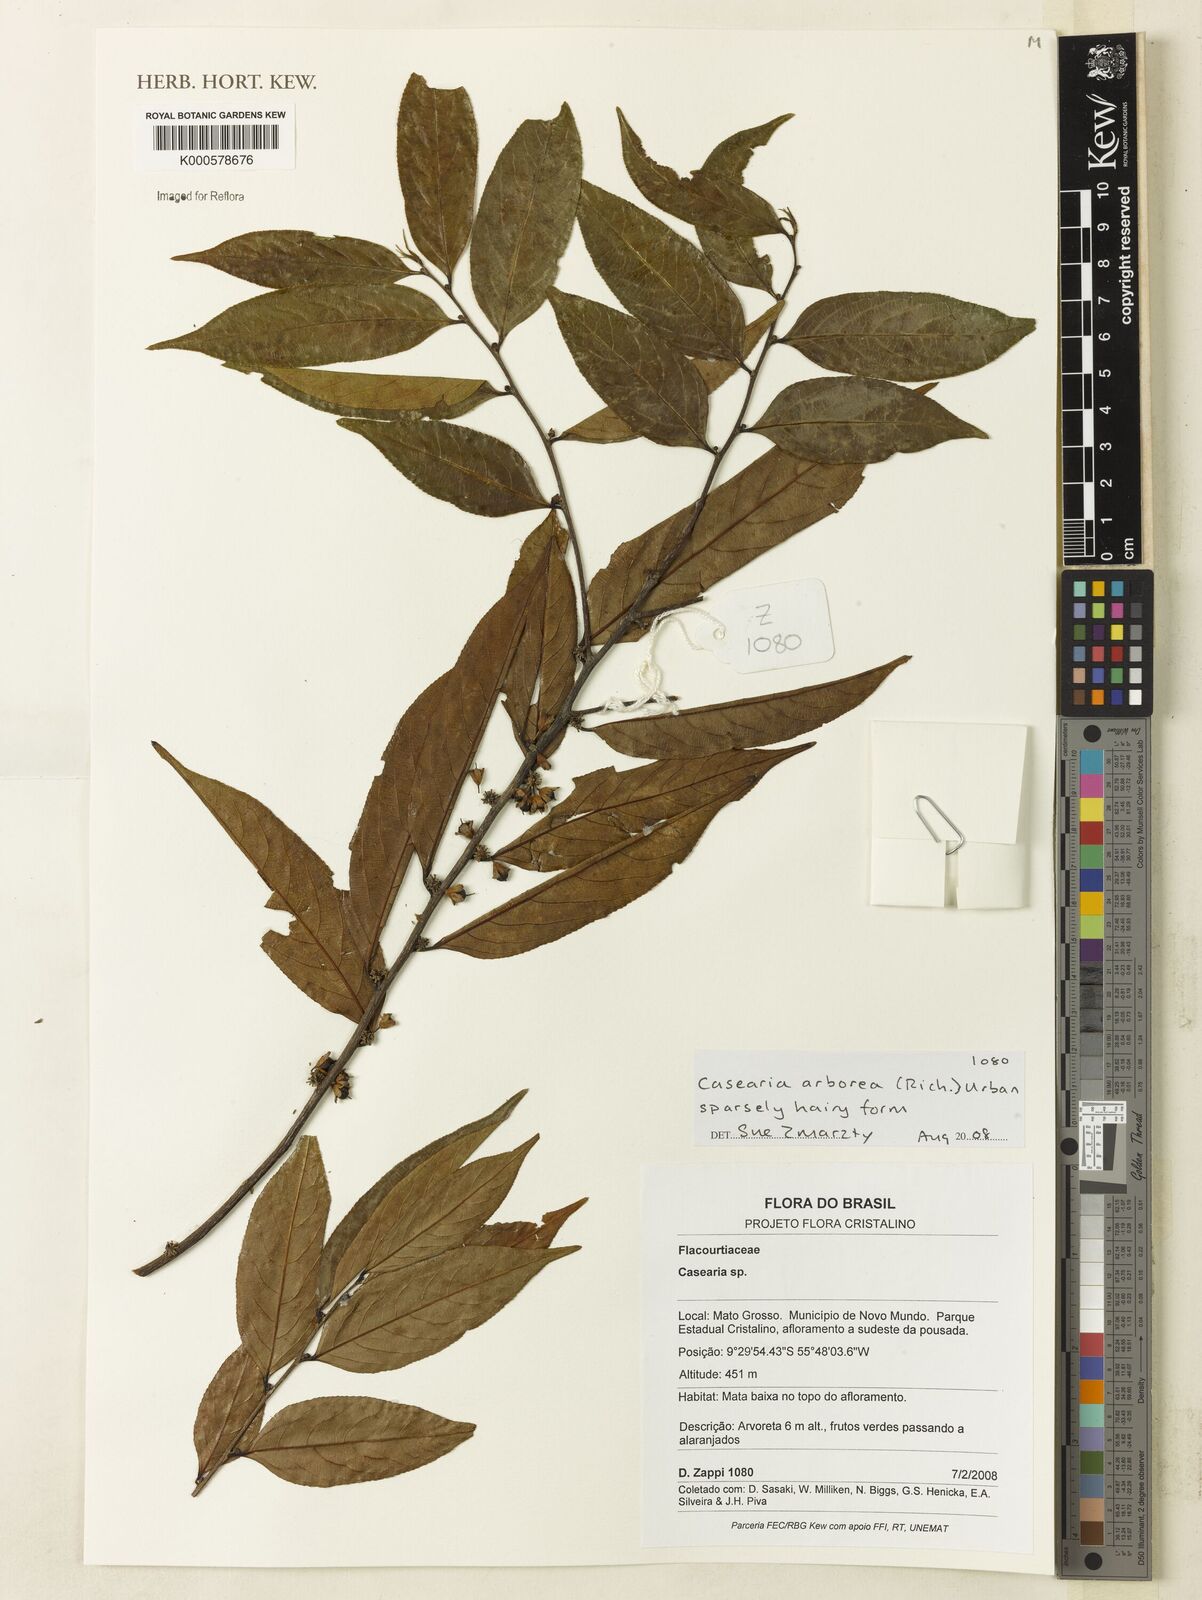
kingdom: Plantae
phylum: Tracheophyta
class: Magnoliopsida
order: Malpighiales
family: Salicaceae
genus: Casearia
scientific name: Casearia arborea
